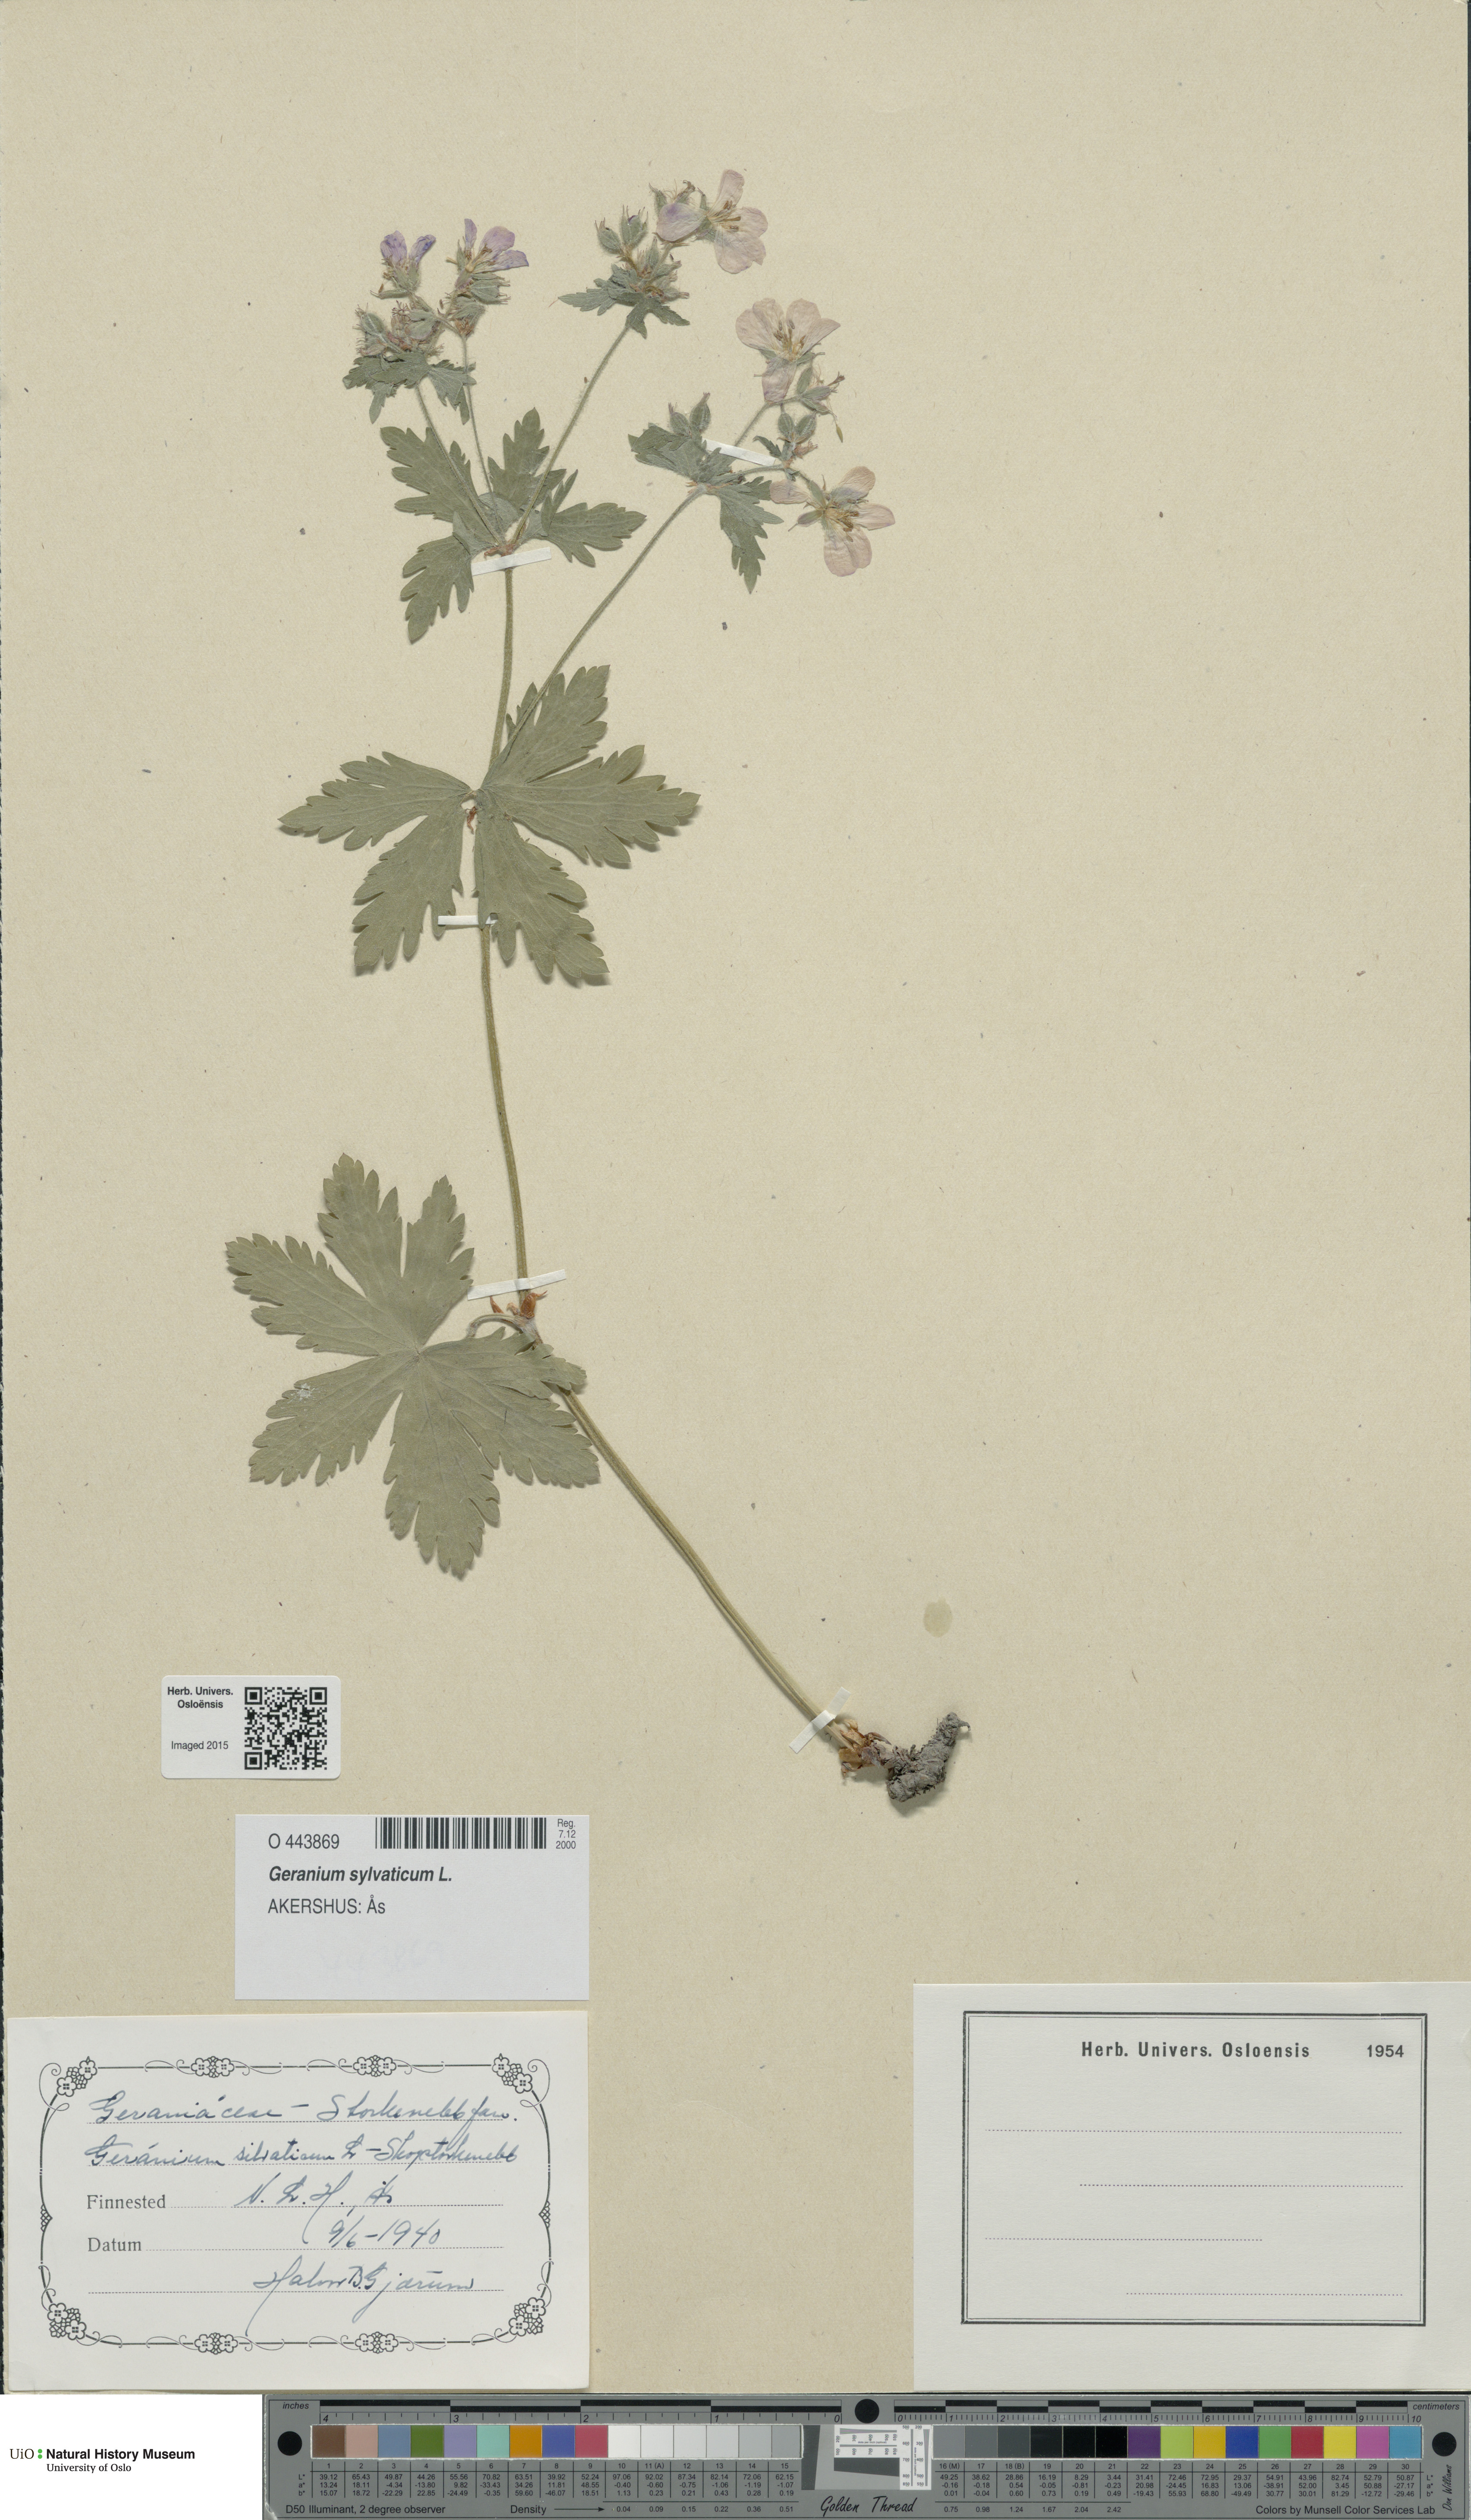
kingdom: Plantae
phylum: Tracheophyta
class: Magnoliopsida
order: Geraniales
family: Geraniaceae
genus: Geranium
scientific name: Geranium sylvaticum
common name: Wood crane's-bill
